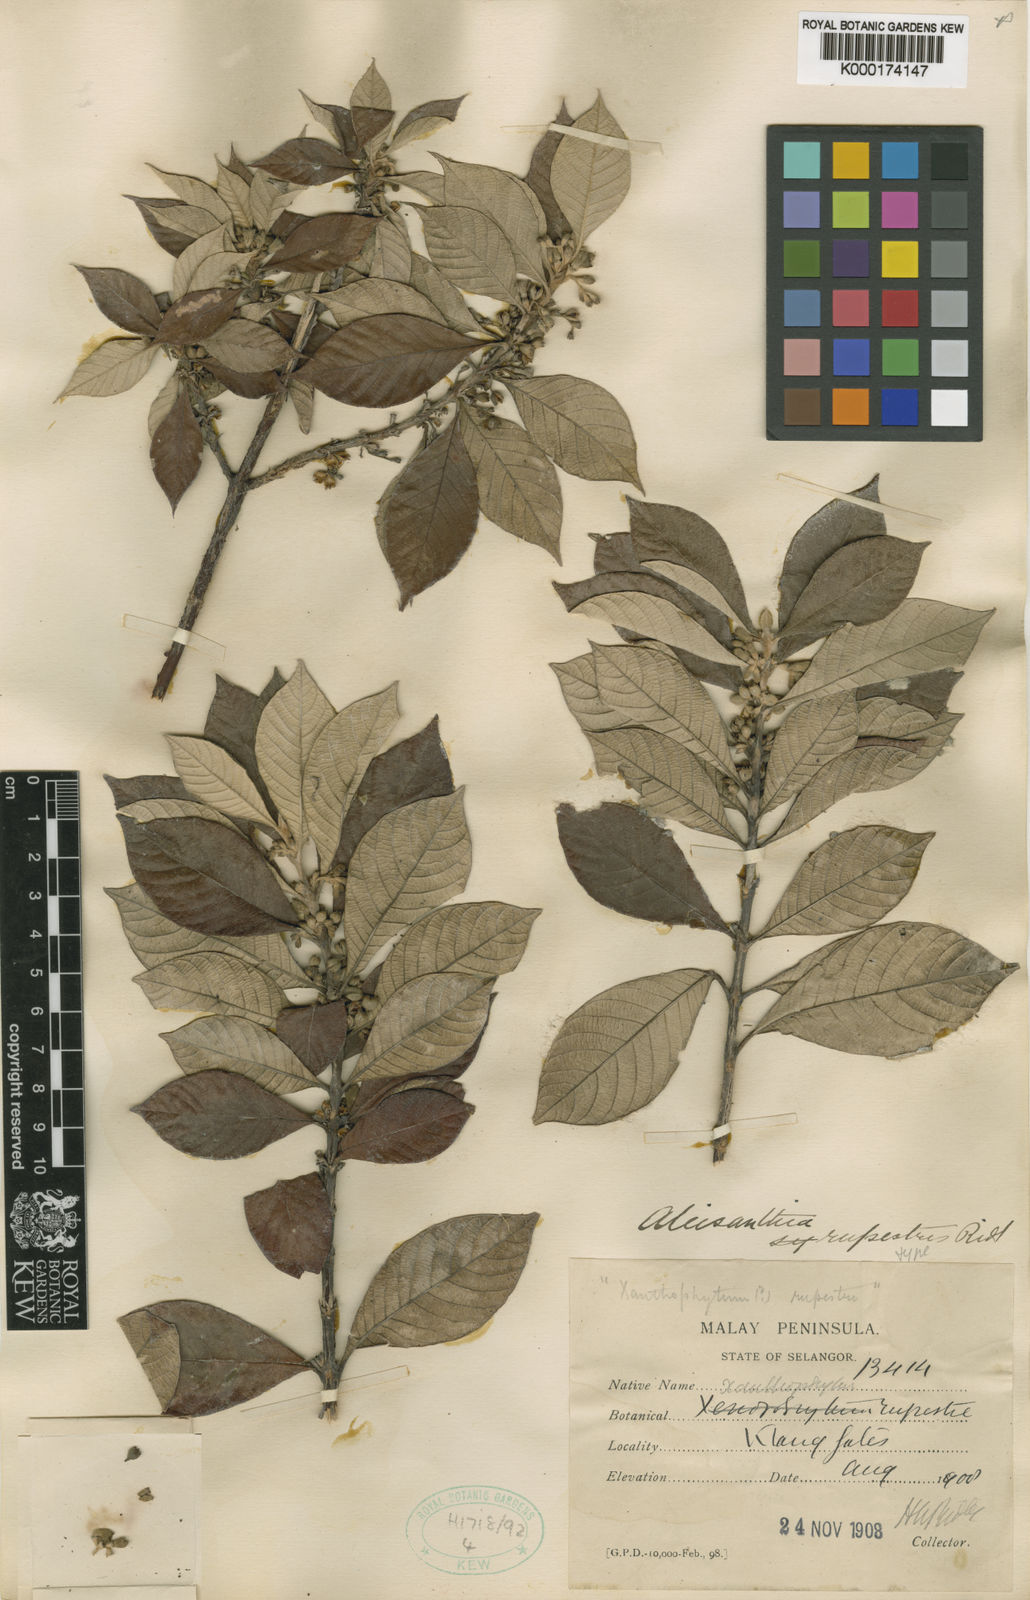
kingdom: Plantae
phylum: Tracheophyta
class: Magnoliopsida
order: Gentianales
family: Rubiaceae
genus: Aleisanthia
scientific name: Aleisanthia rupestris
